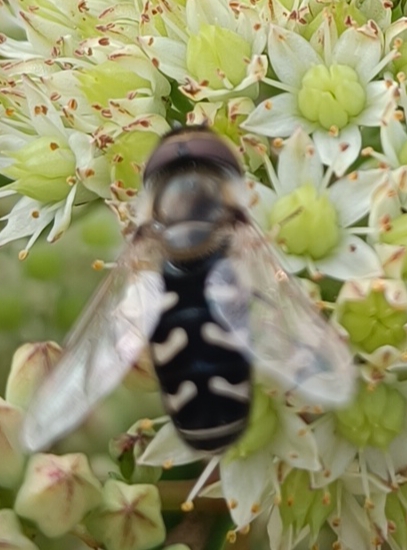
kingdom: Animalia
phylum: Arthropoda
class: Insecta
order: Diptera
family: Syrphidae
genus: Scaeva
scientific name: Scaeva pyrastri
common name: Hvidplettet agersvirreflue
